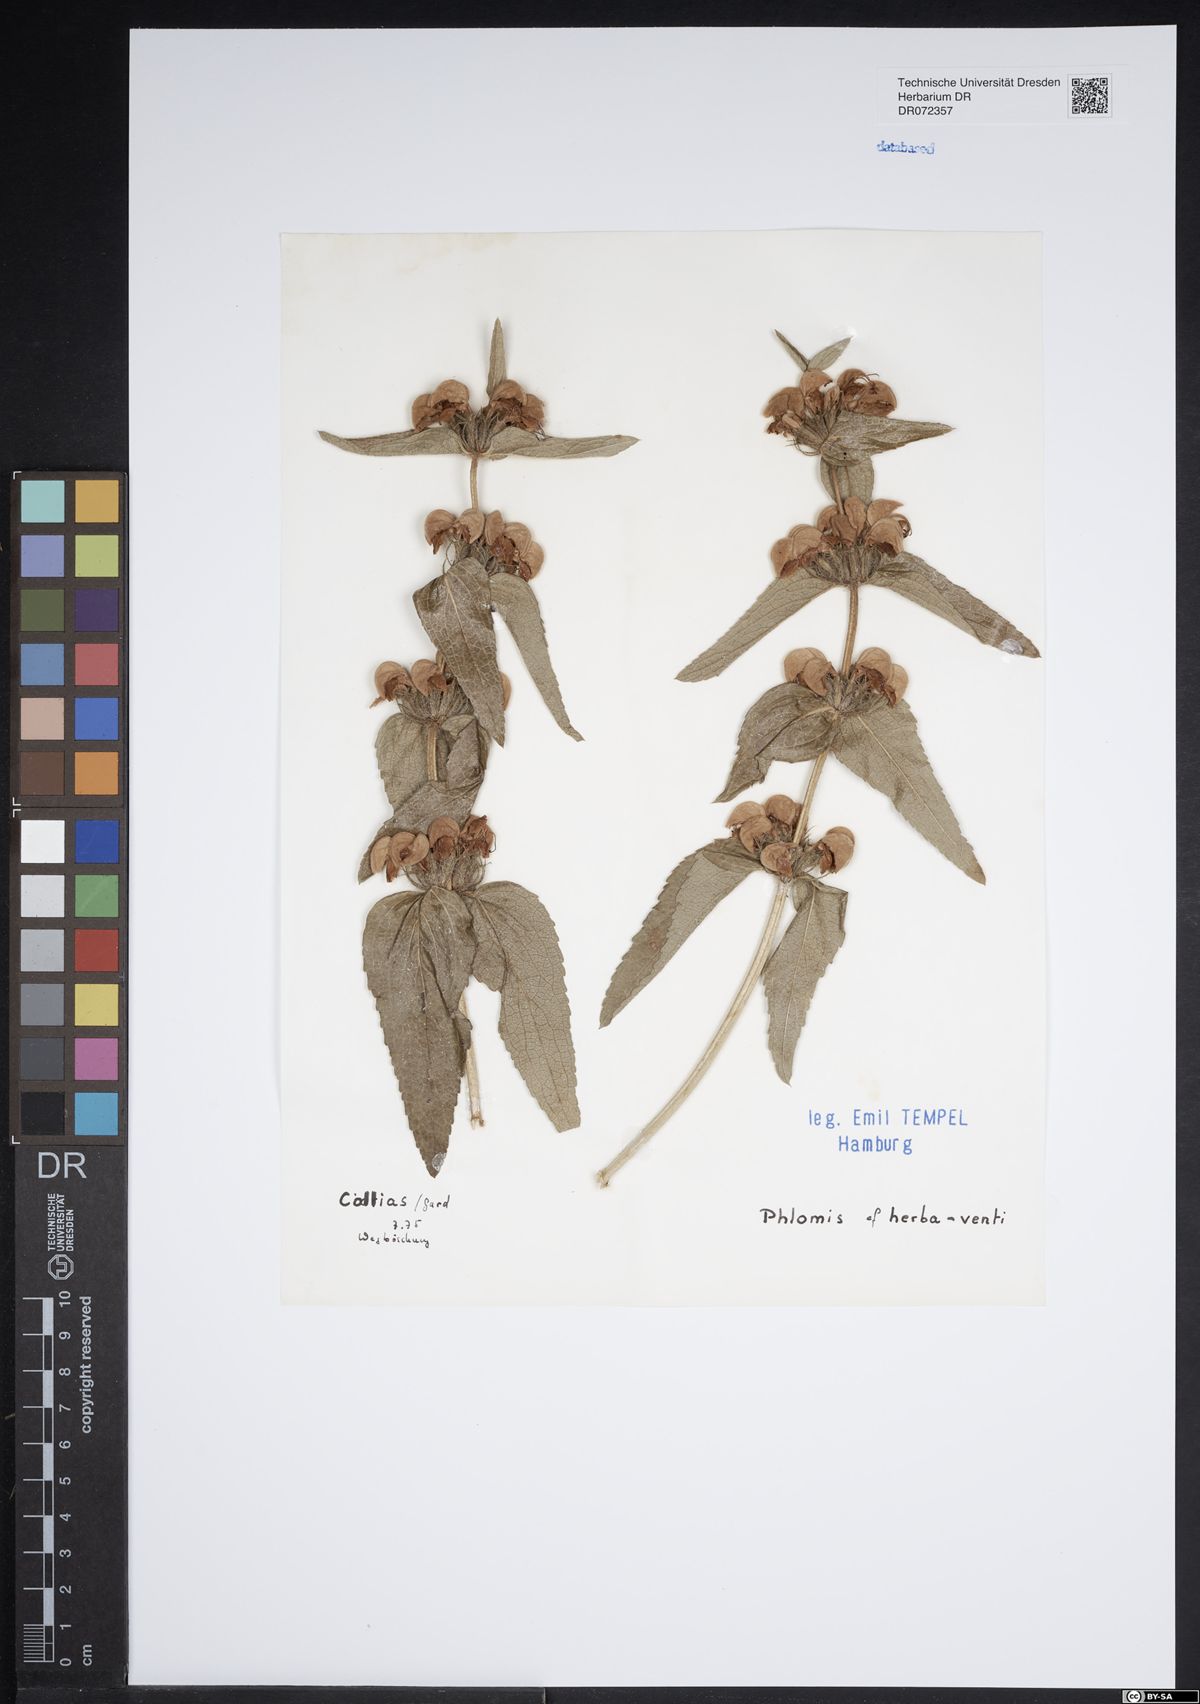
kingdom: Plantae
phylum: Tracheophyta
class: Magnoliopsida
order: Lamiales
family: Lamiaceae
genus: Phlomis
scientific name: Phlomis herba-venti
